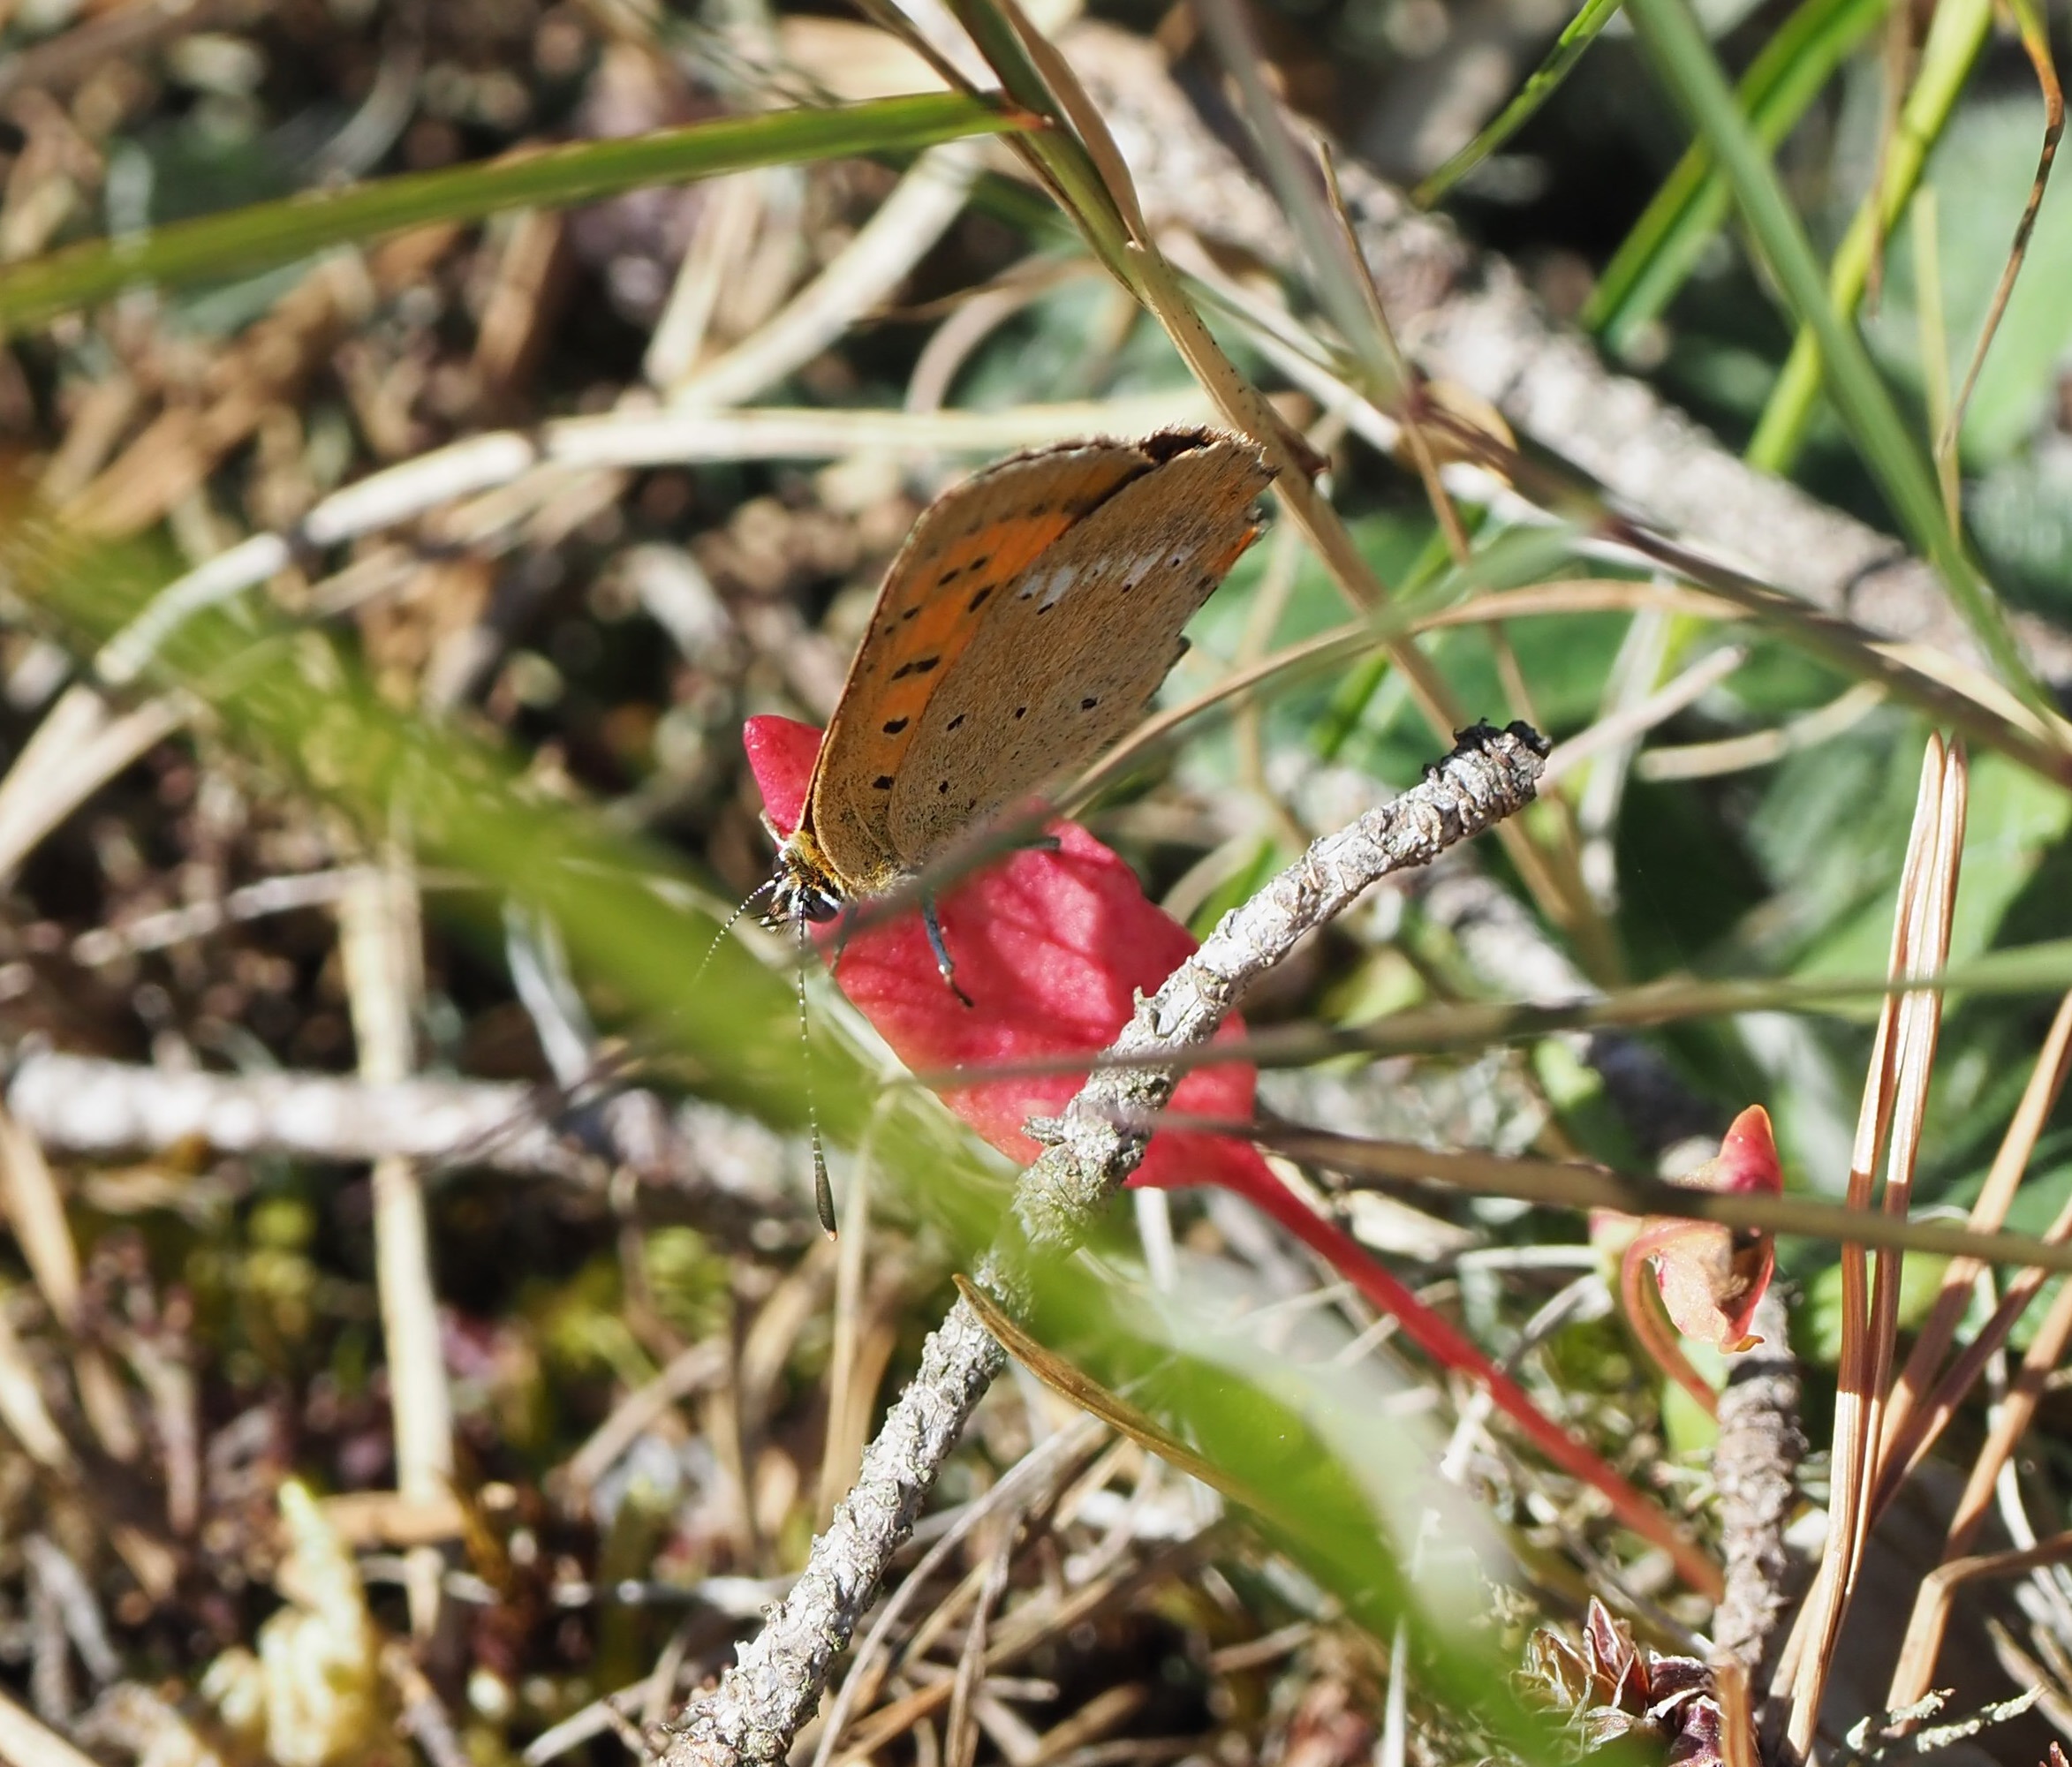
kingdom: Animalia
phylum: Arthropoda
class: Insecta
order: Lepidoptera
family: Lycaenidae
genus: Lycaena
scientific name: Lycaena virgaureae
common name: Dukatsommerfugl
